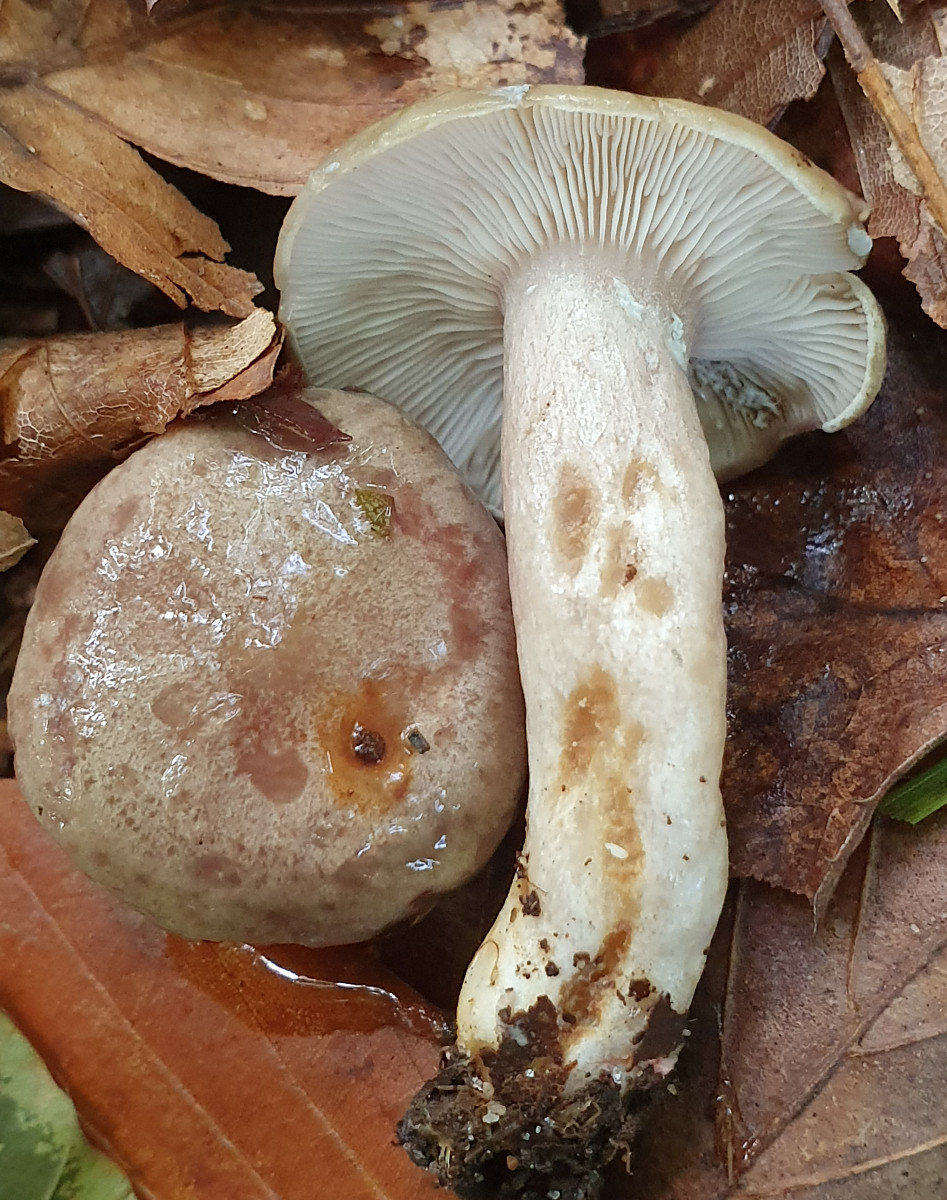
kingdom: Fungi
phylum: Basidiomycota
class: Agaricomycetes
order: Russulales
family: Russulaceae
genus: Lactarius
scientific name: Lactarius blennius
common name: dråbeplettet mælkehat
